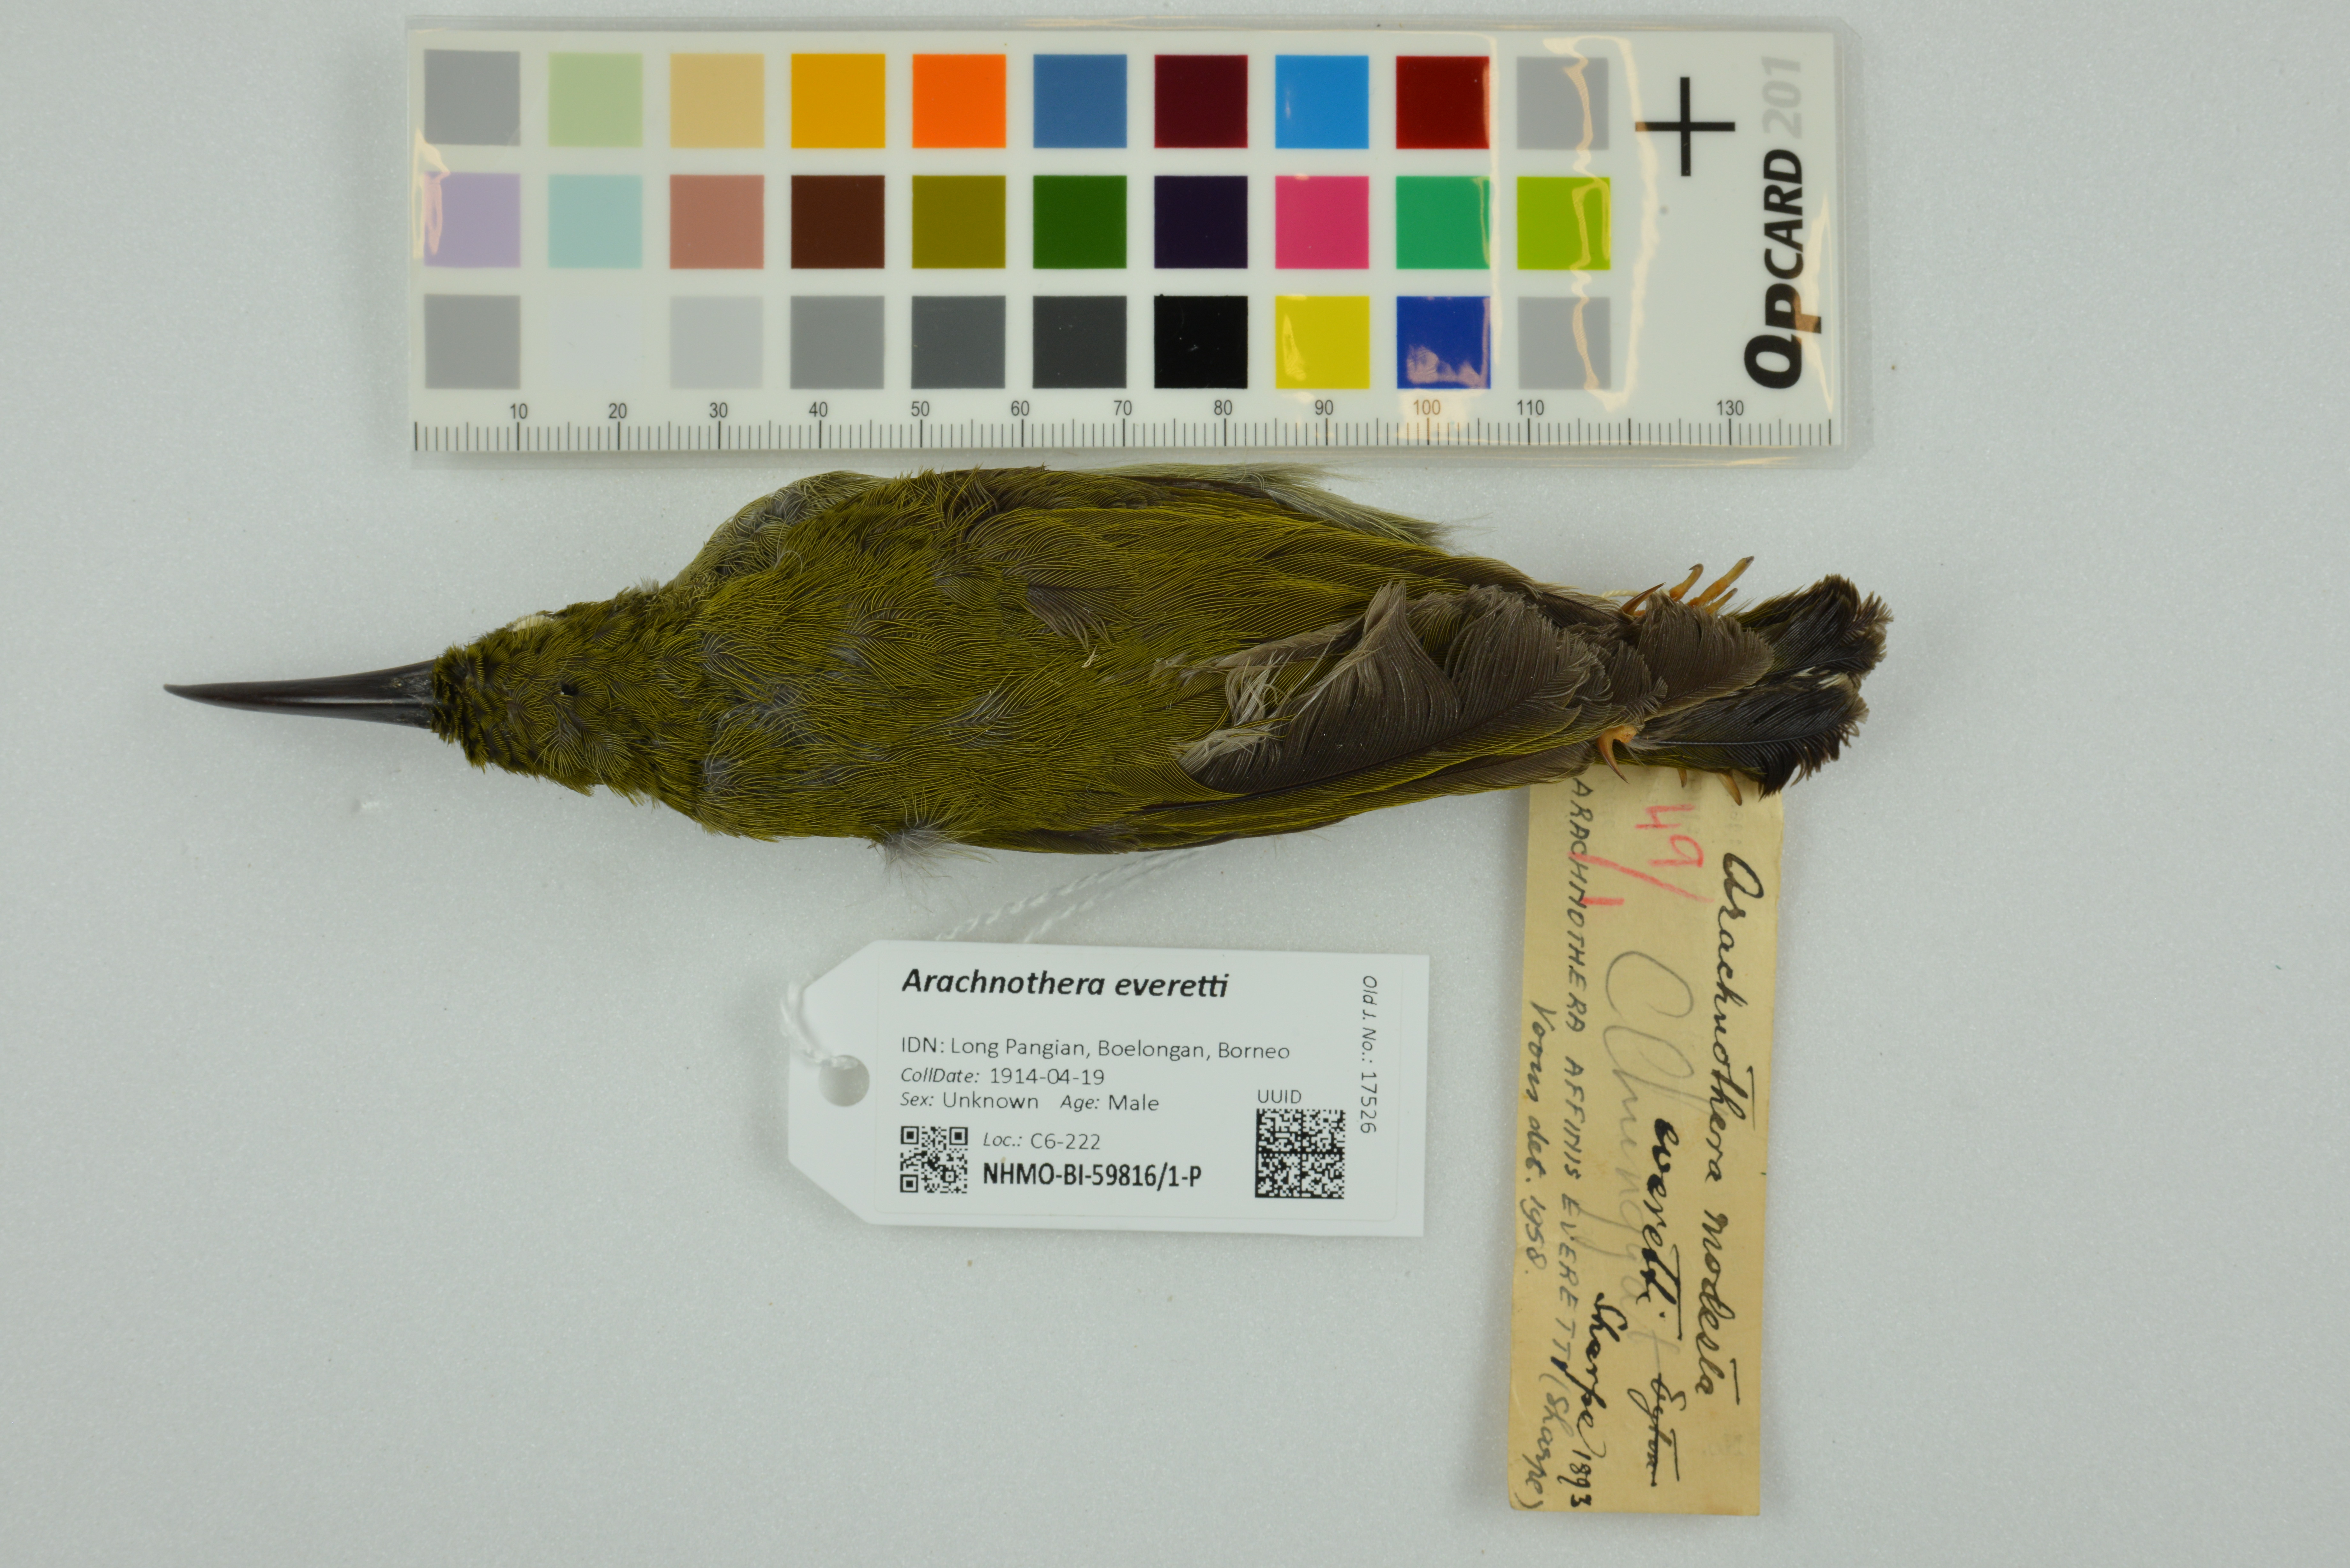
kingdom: Animalia
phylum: Chordata
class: Aves
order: Passeriformes
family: Nectariniidae
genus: Arachnothera
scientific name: Arachnothera everetti
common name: Bornean spiderhunter
